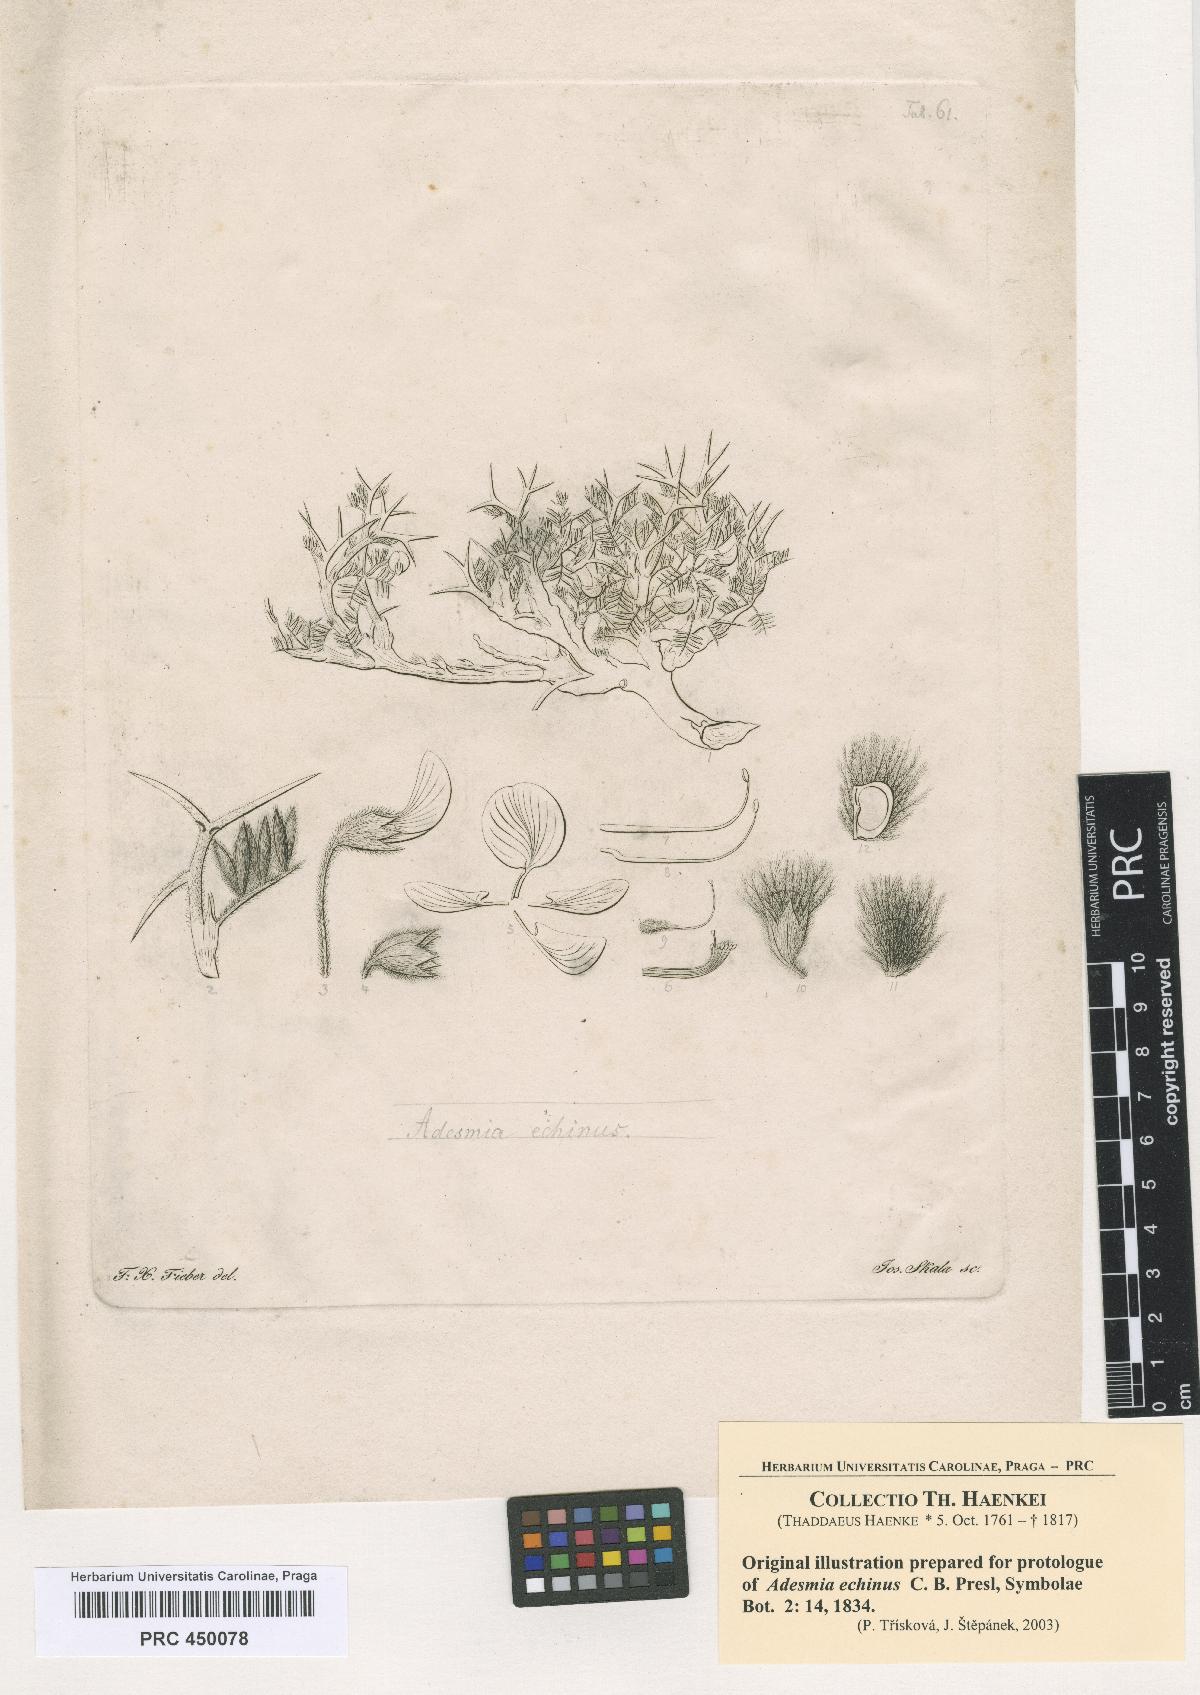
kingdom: Plantae
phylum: Tracheophyta
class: Magnoliopsida
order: Fabales
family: Fabaceae
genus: Adesmia
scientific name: Adesmia echinus
